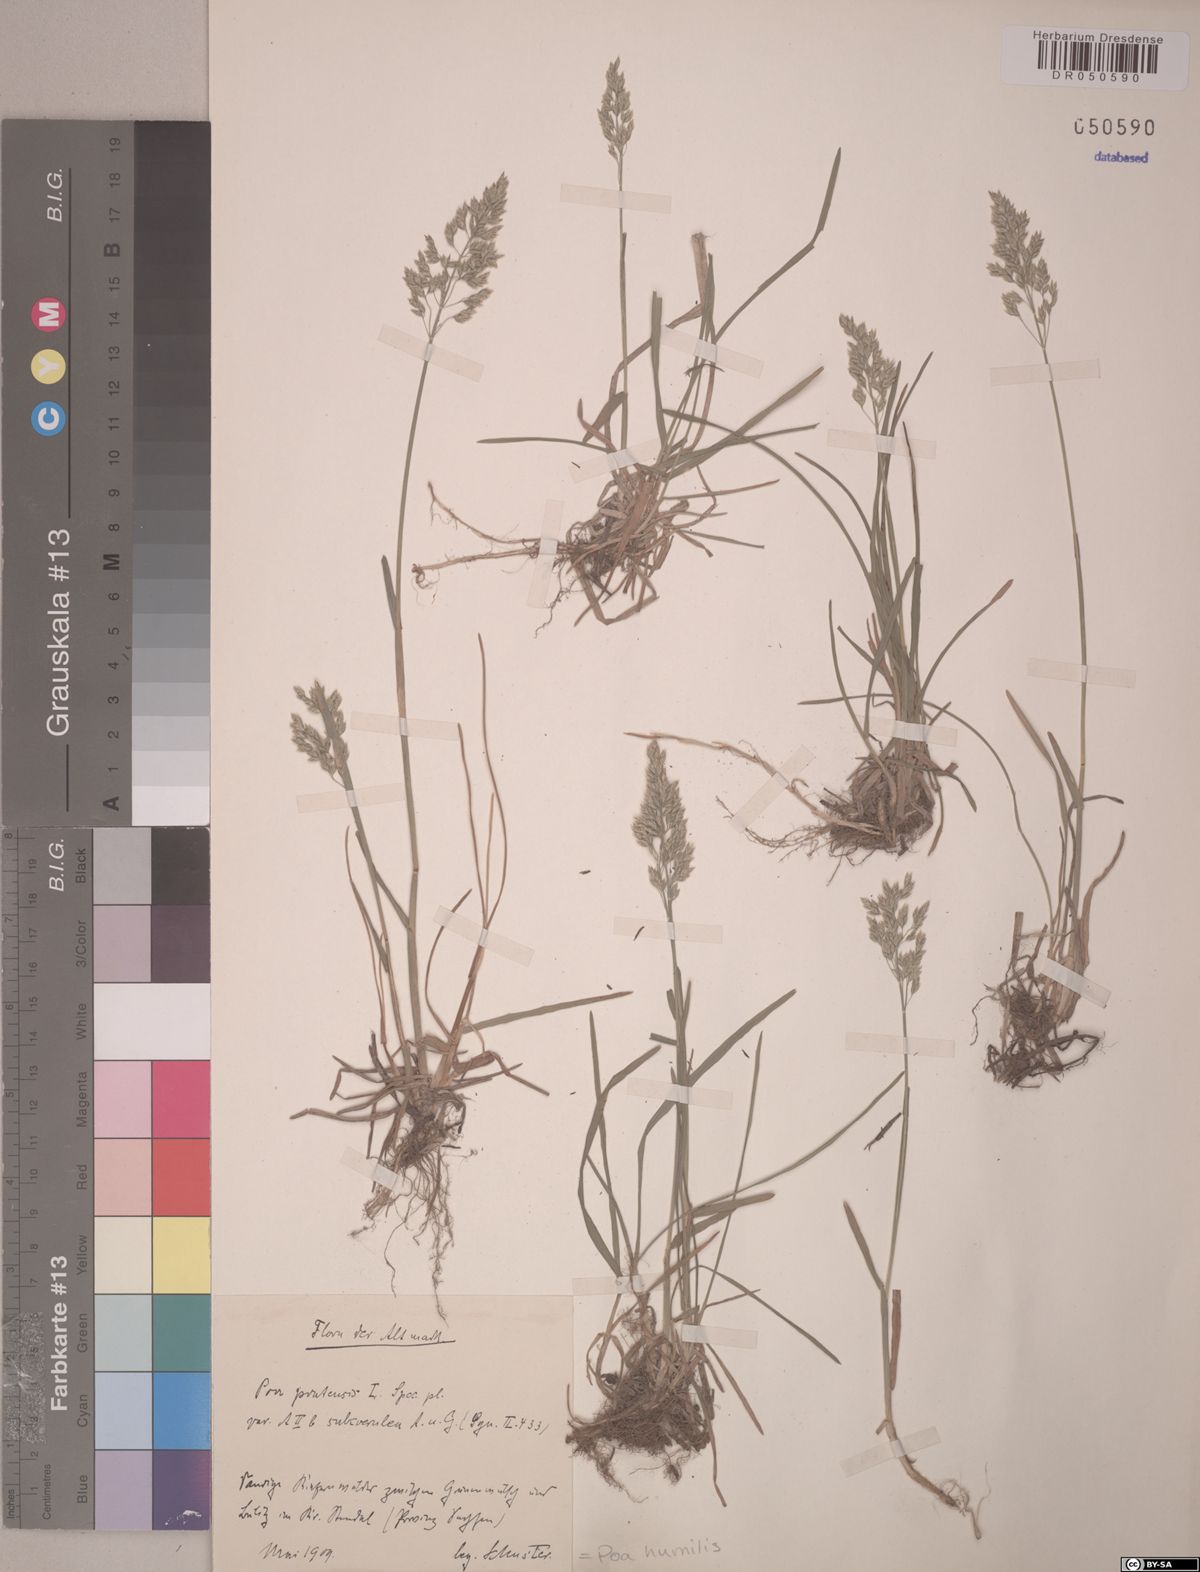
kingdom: Plantae
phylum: Tracheophyta
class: Liliopsida
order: Poales
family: Poaceae
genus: Poa
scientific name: Poa humilis
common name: Spreading meadow-grass
